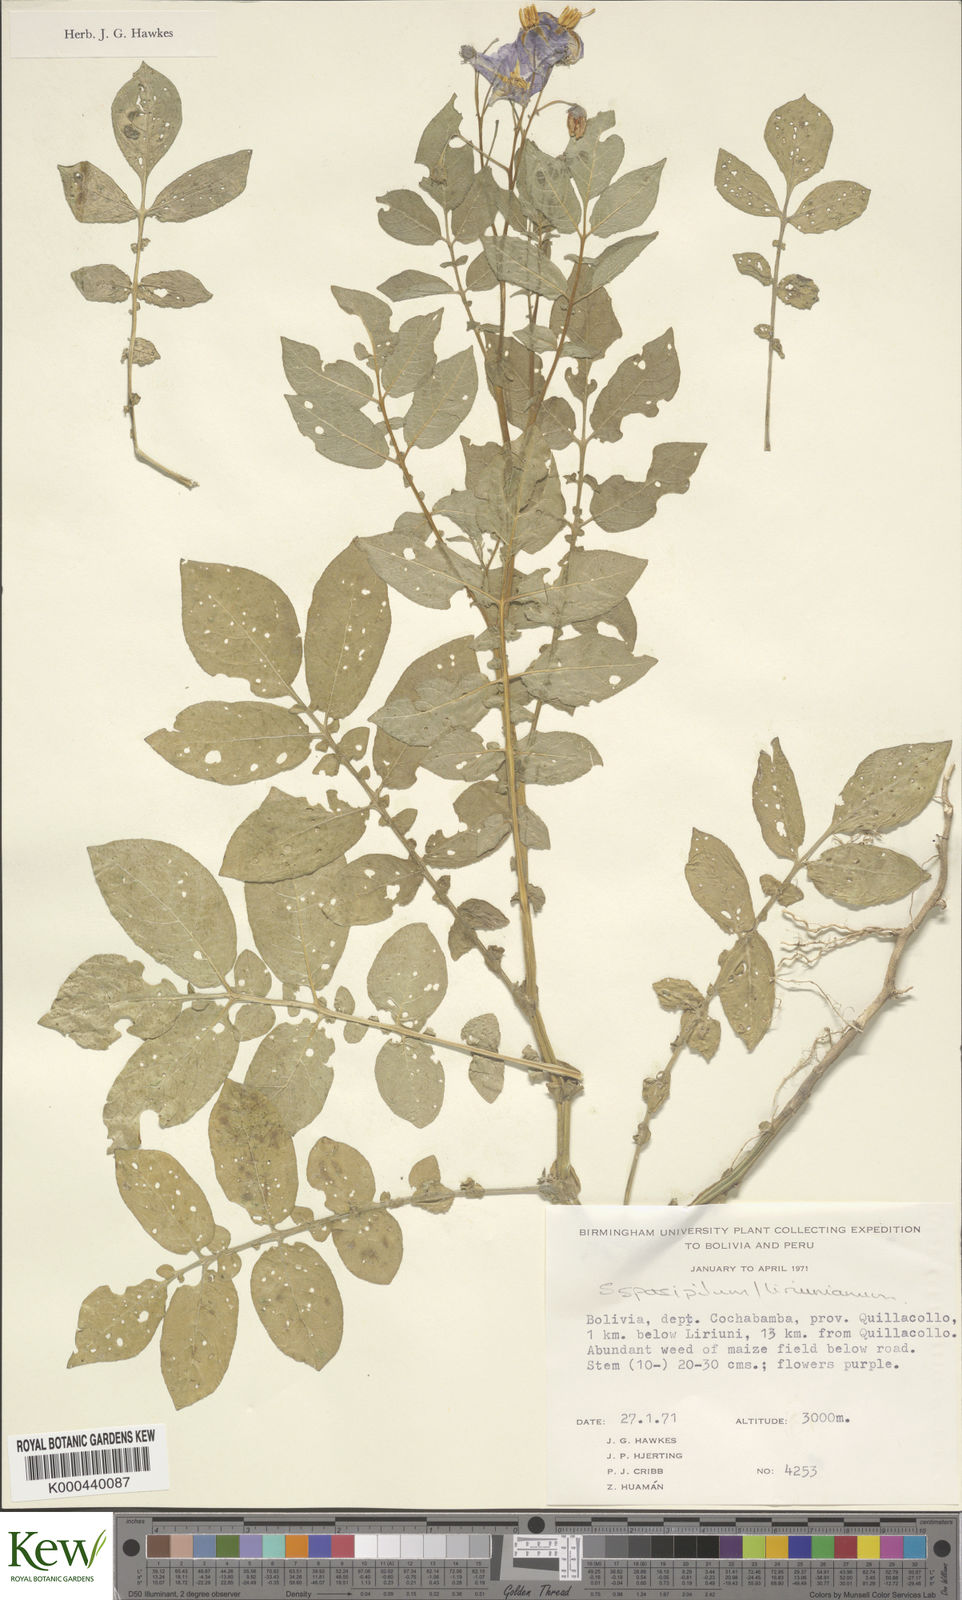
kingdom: Plantae
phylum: Tracheophyta
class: Magnoliopsida
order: Solanales
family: Solanaceae
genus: Solanum
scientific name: Solanum brevicaule
